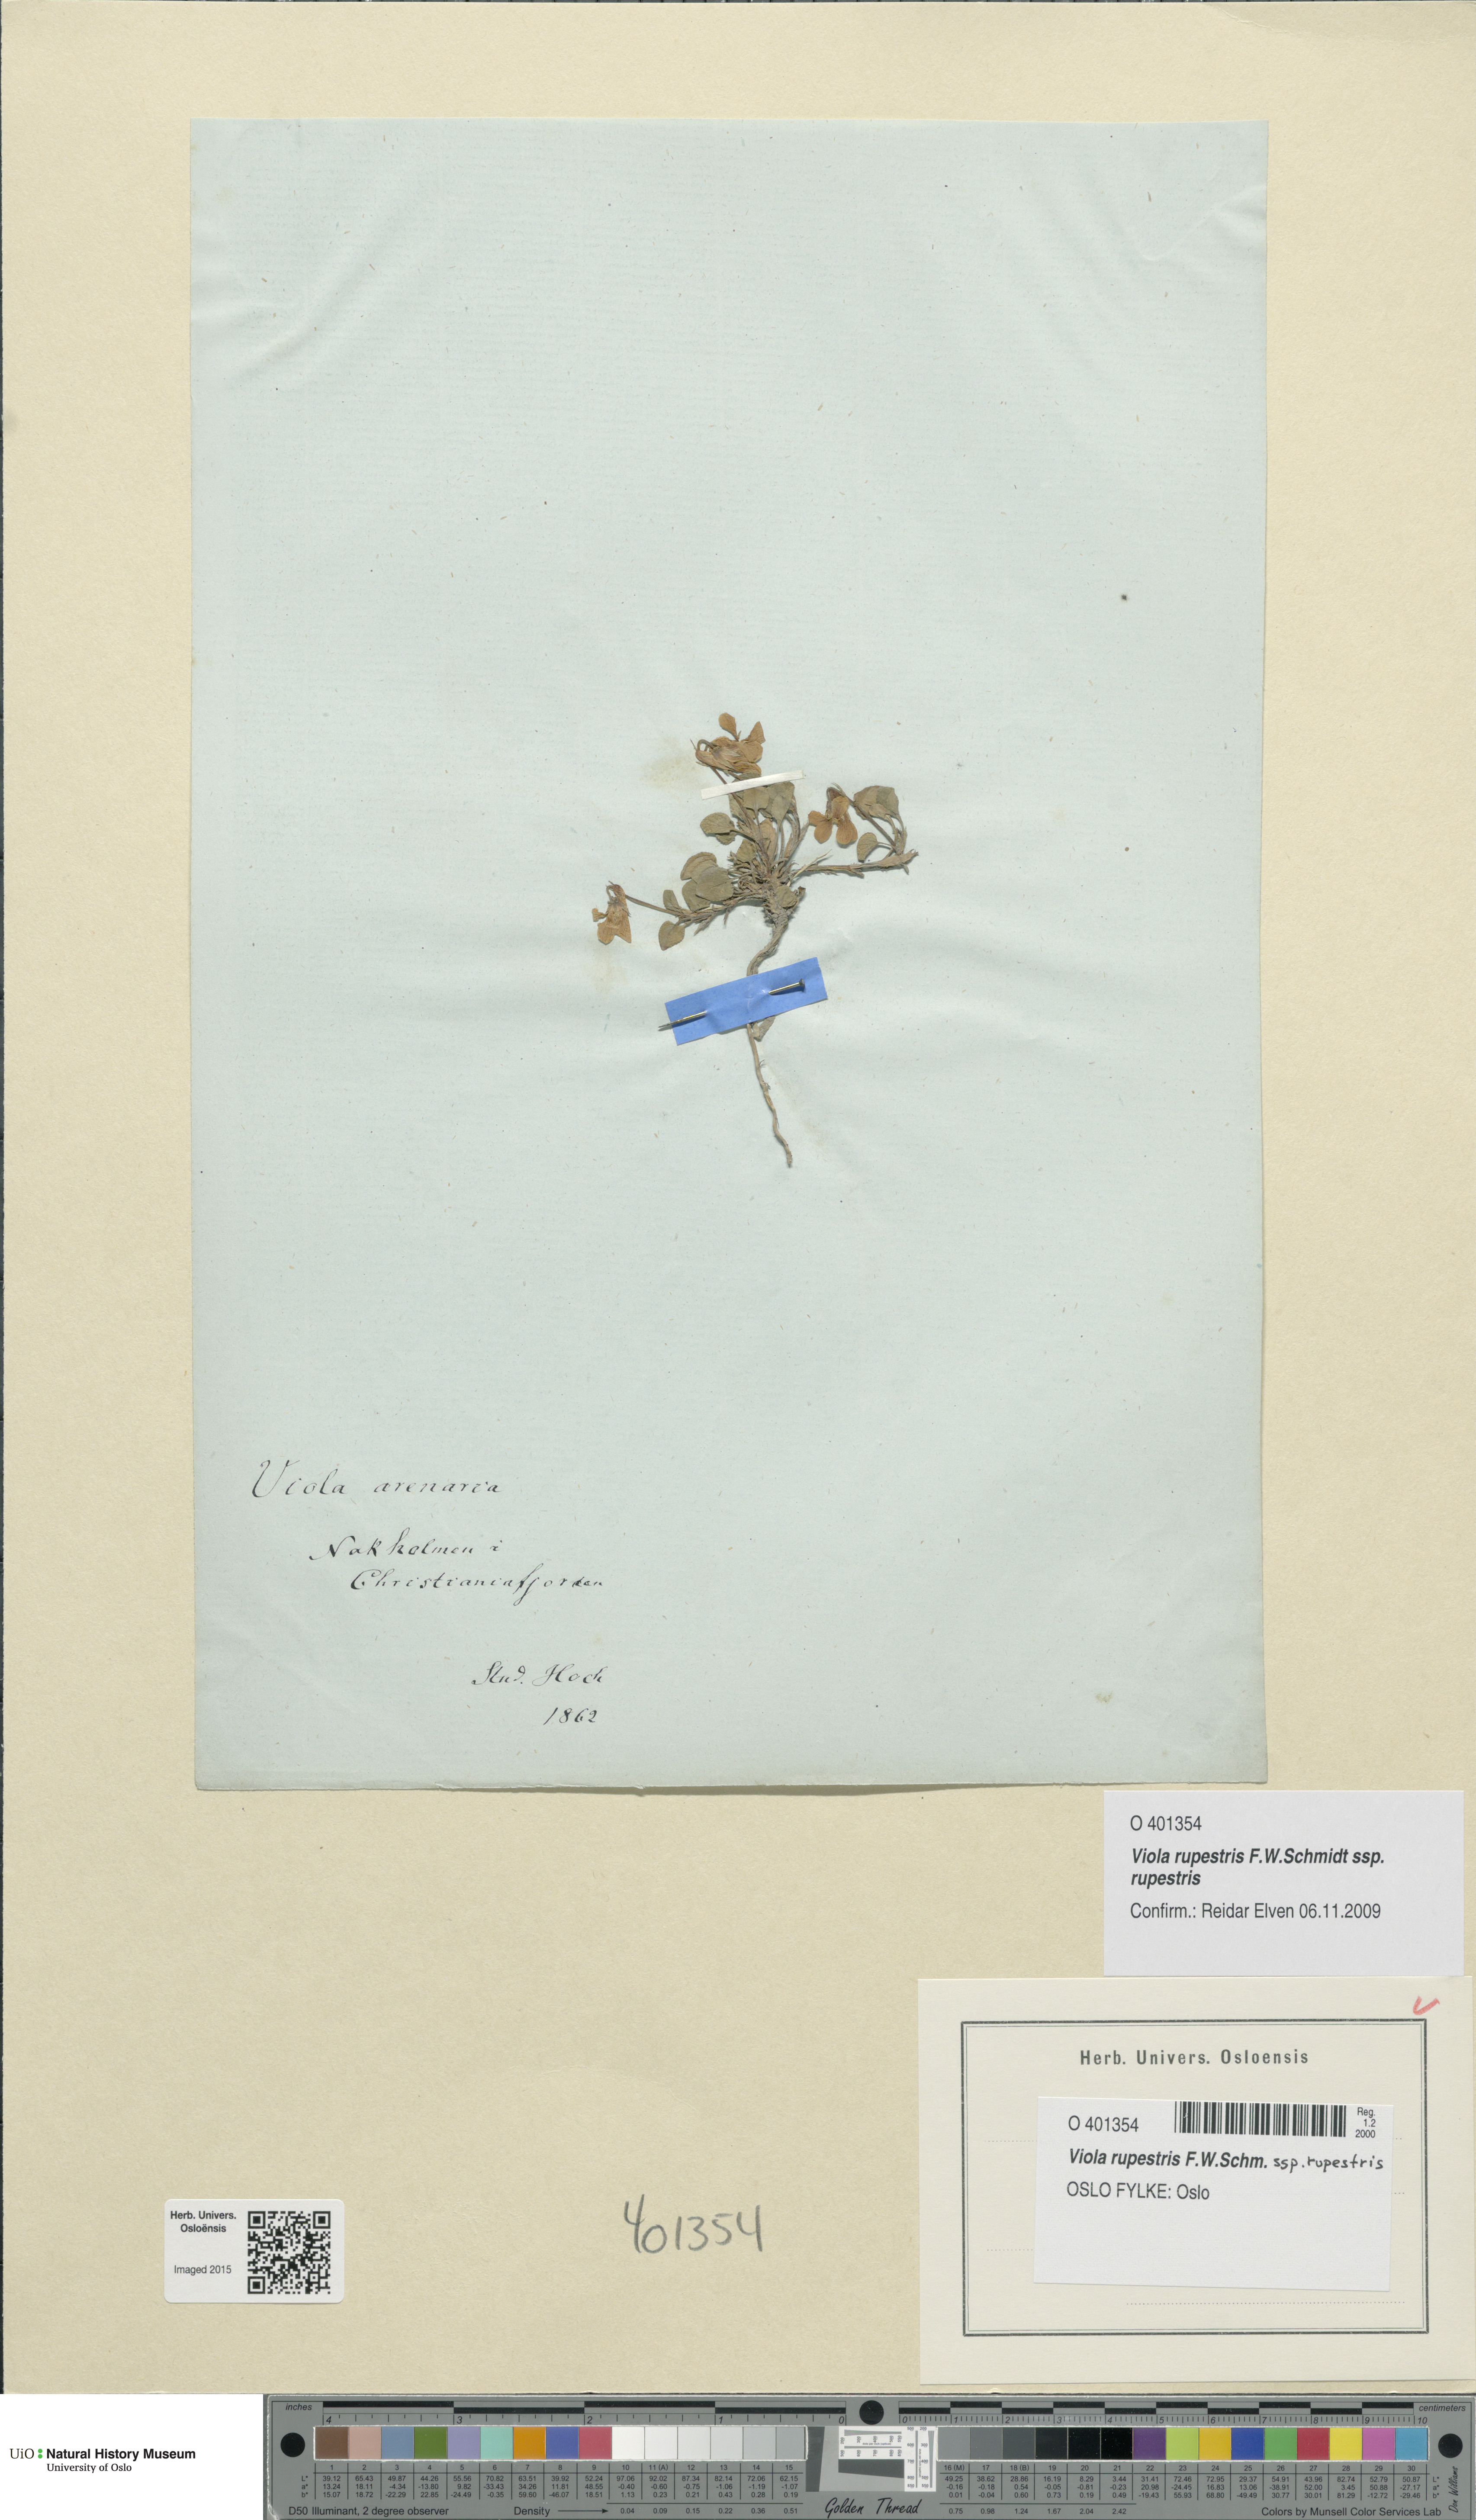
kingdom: Plantae
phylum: Tracheophyta
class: Magnoliopsida
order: Malpighiales
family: Violaceae
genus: Viola
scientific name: Viola rupestris
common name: Teesdale violet
